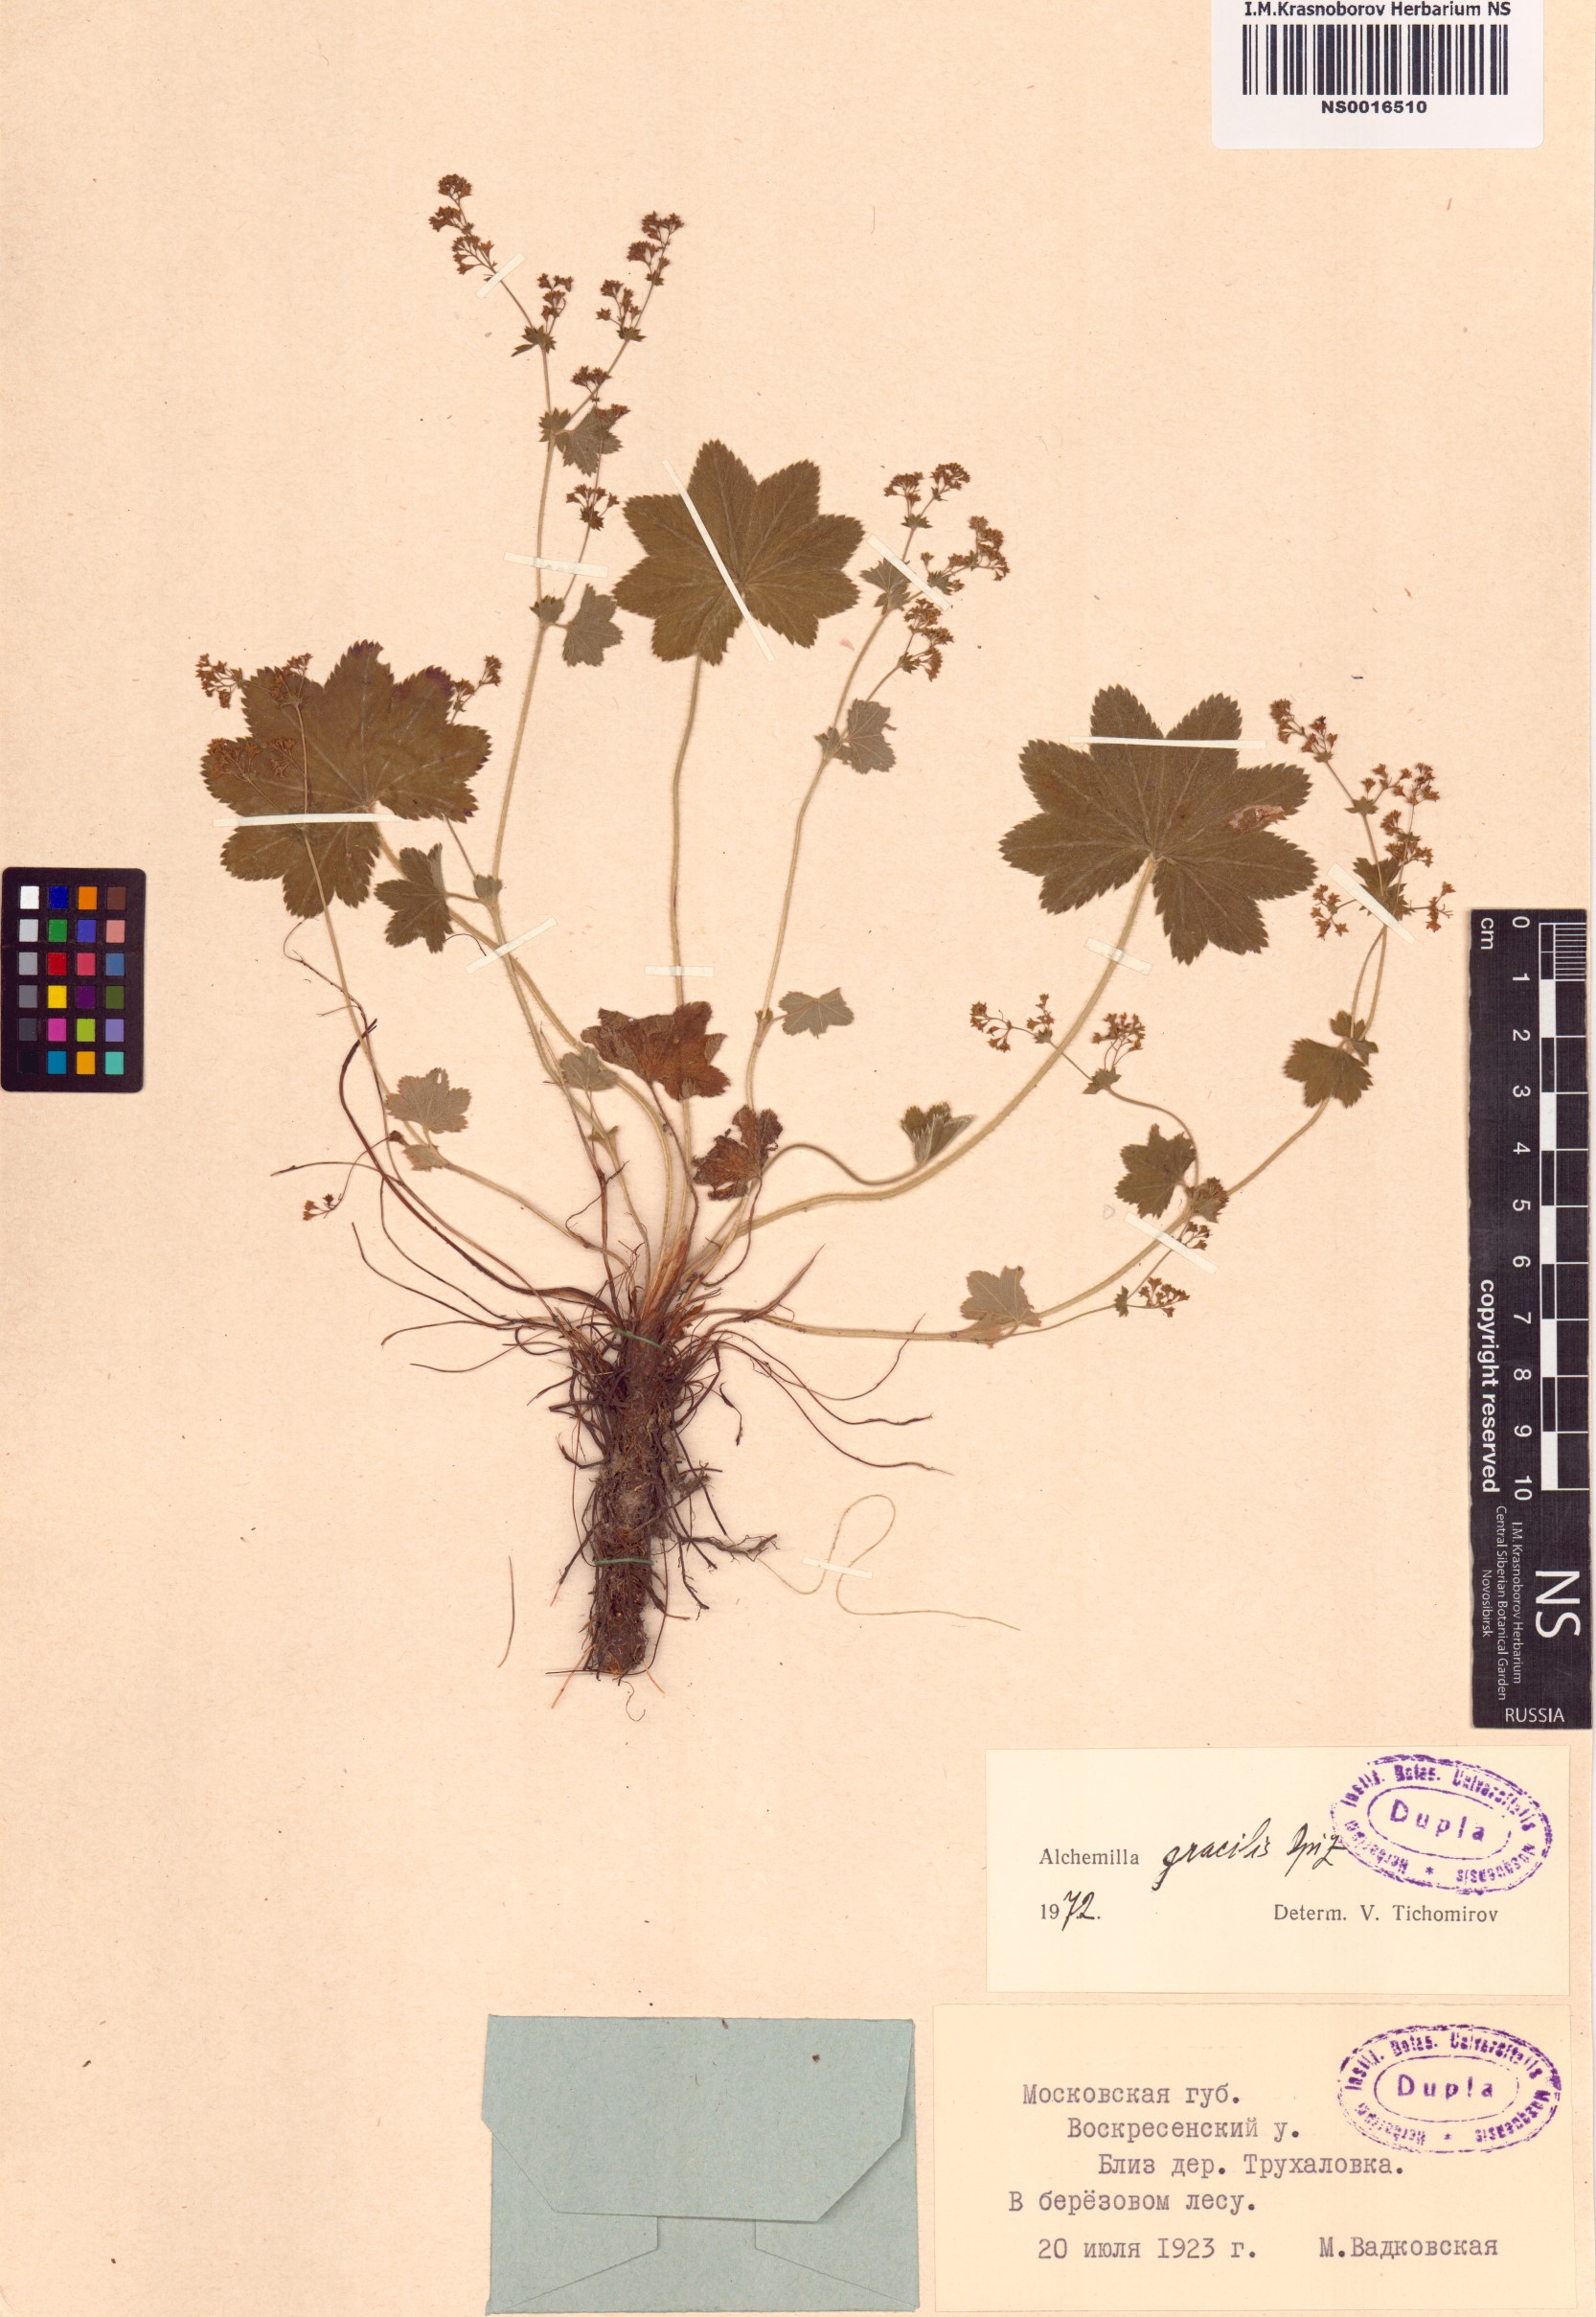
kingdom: Plantae
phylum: Tracheophyta
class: Magnoliopsida
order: Rosales
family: Rosaceae
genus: Alchemilla
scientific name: Alchemilla monticola
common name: Hairy lady's mantle
